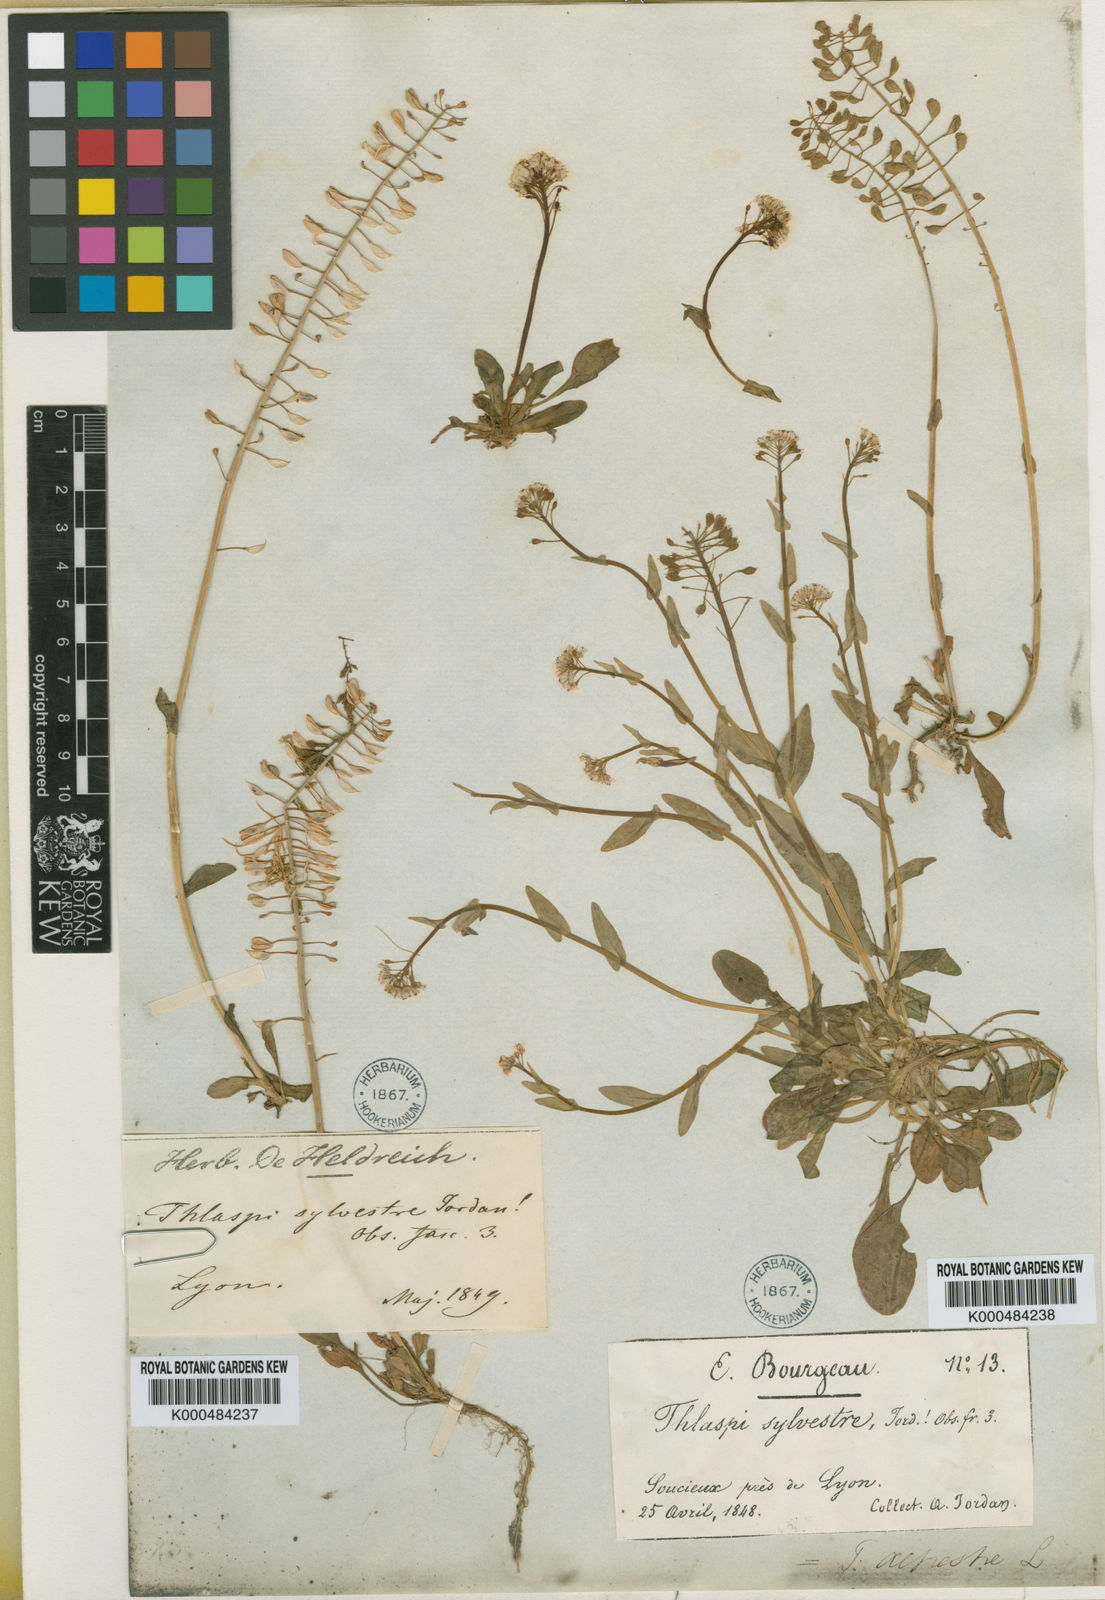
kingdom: Plantae
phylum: Tracheophyta
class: Magnoliopsida
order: Brassicales
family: Brassicaceae
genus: Thlaspi
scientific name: Thlaspi
